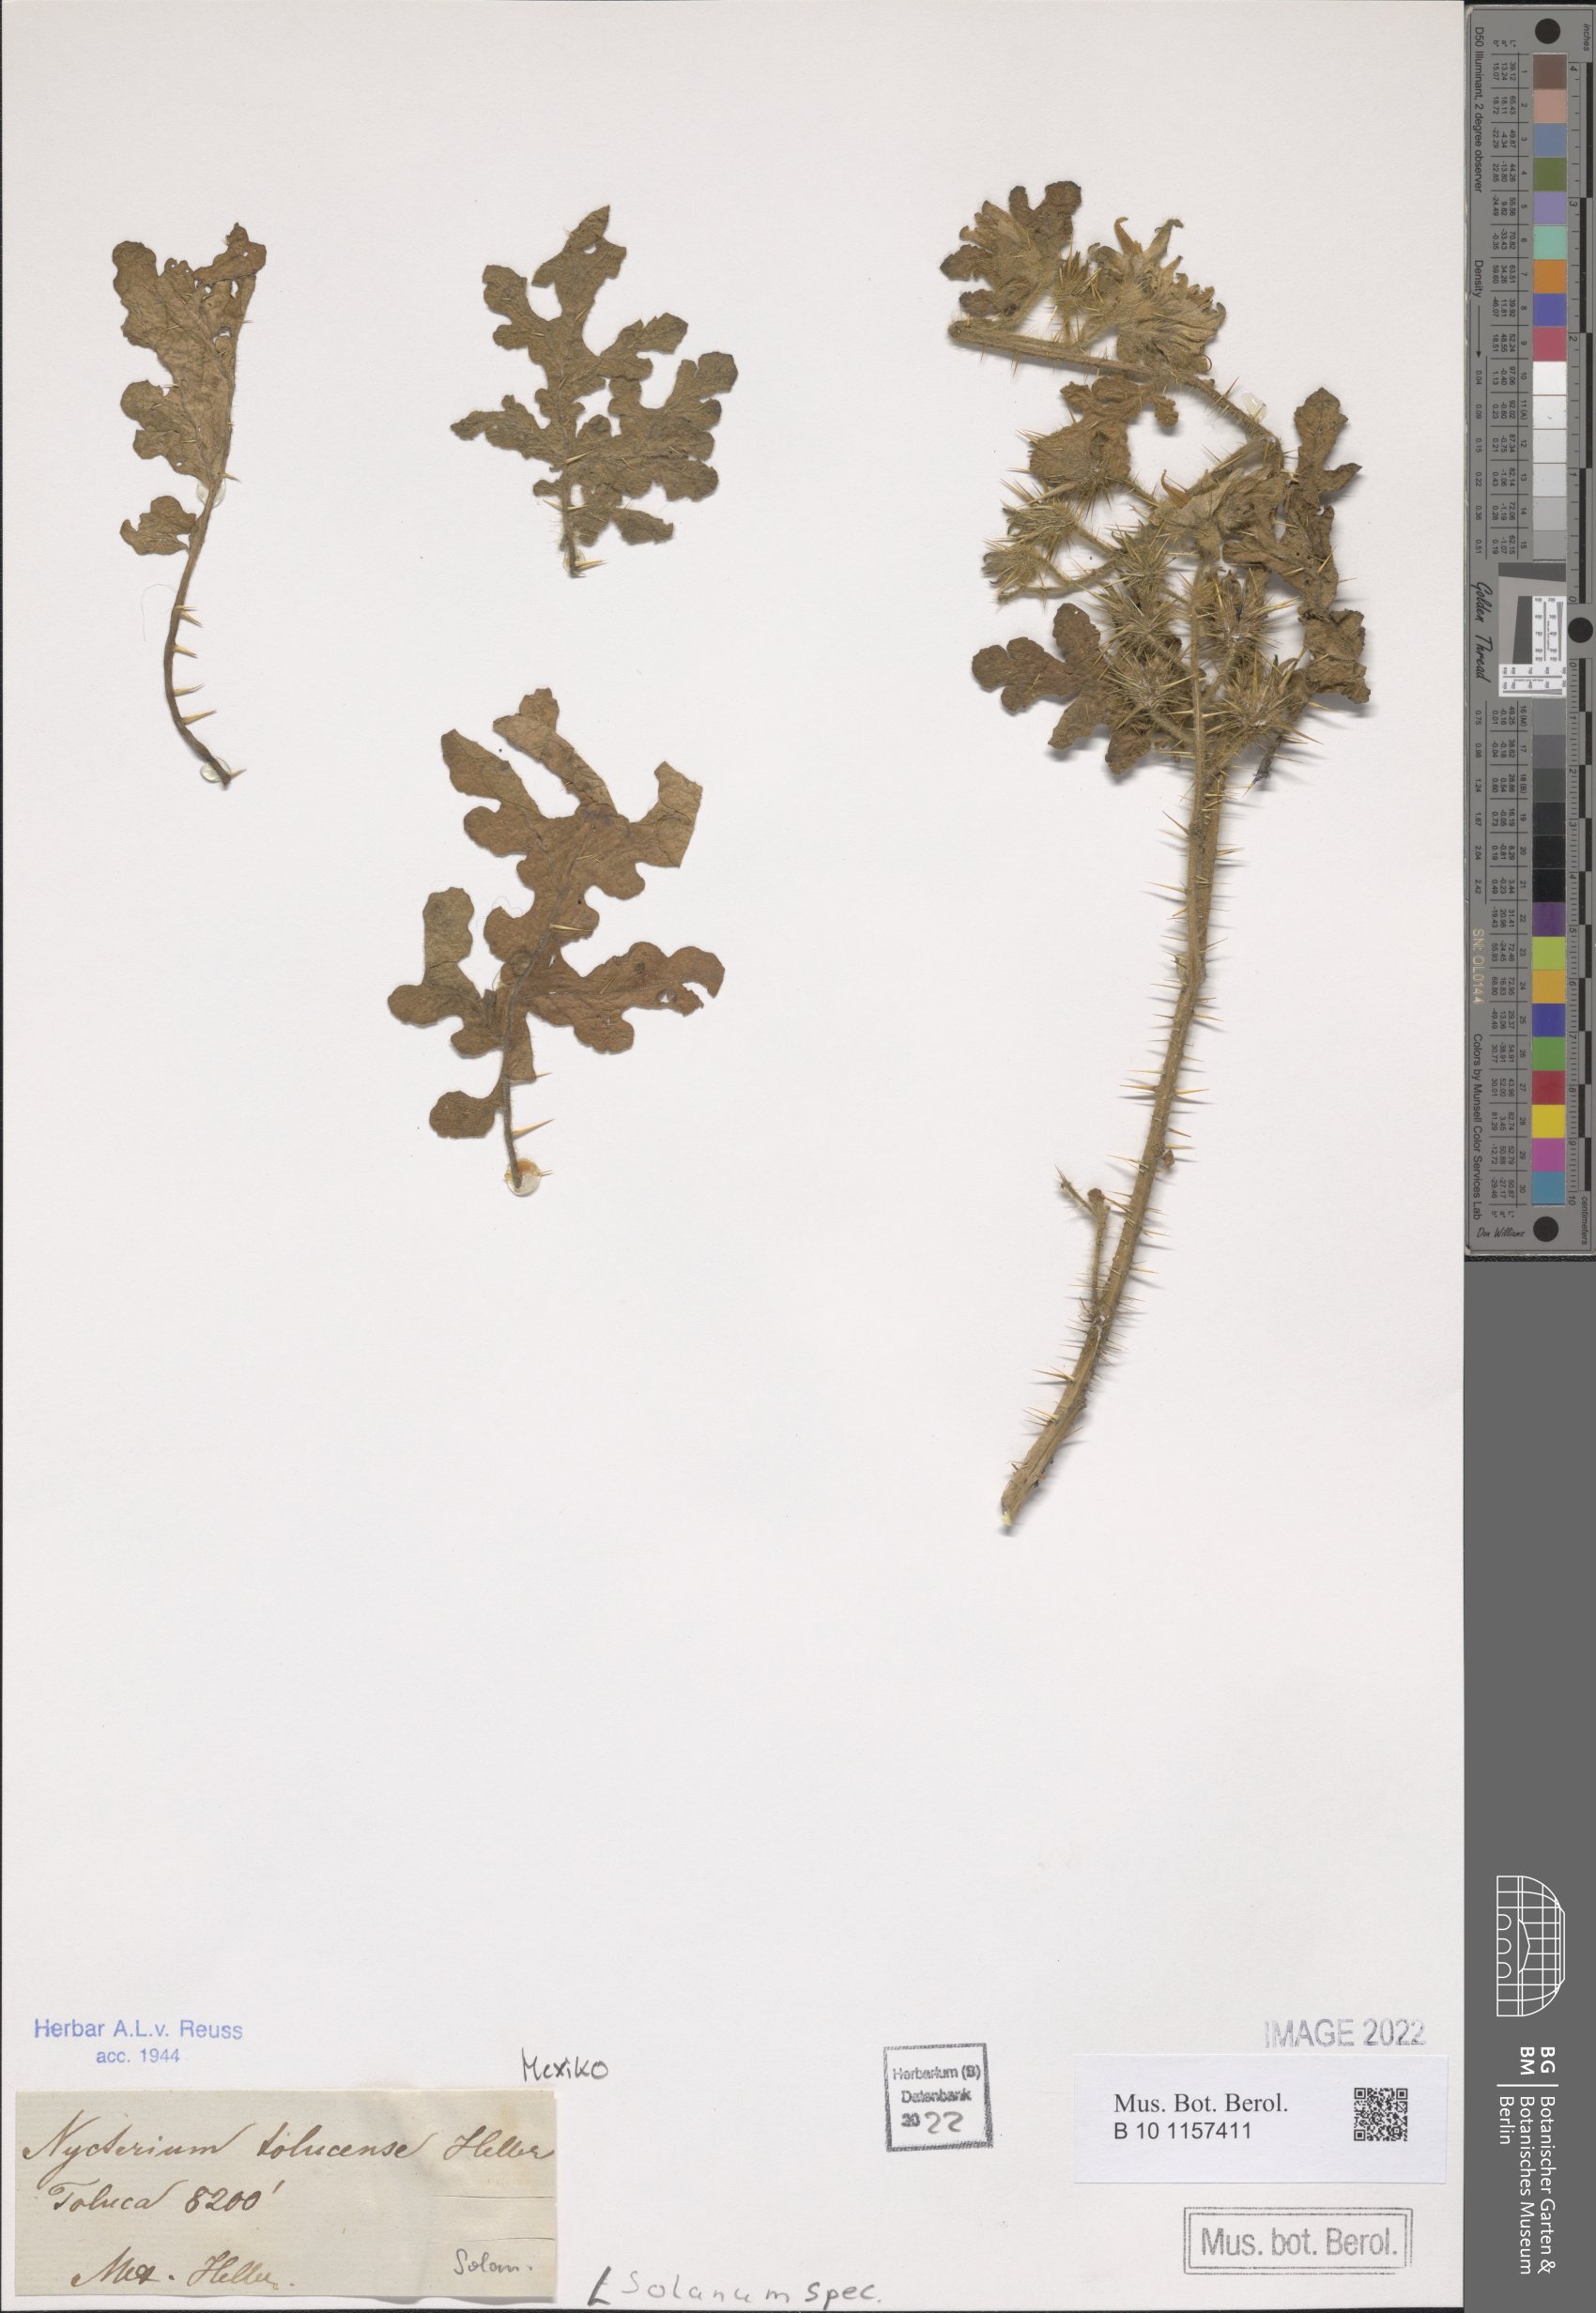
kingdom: Plantae
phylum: Tracheophyta
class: Magnoliopsida
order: Solanales
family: Solanaceae
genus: Solanum
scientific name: Solanum
